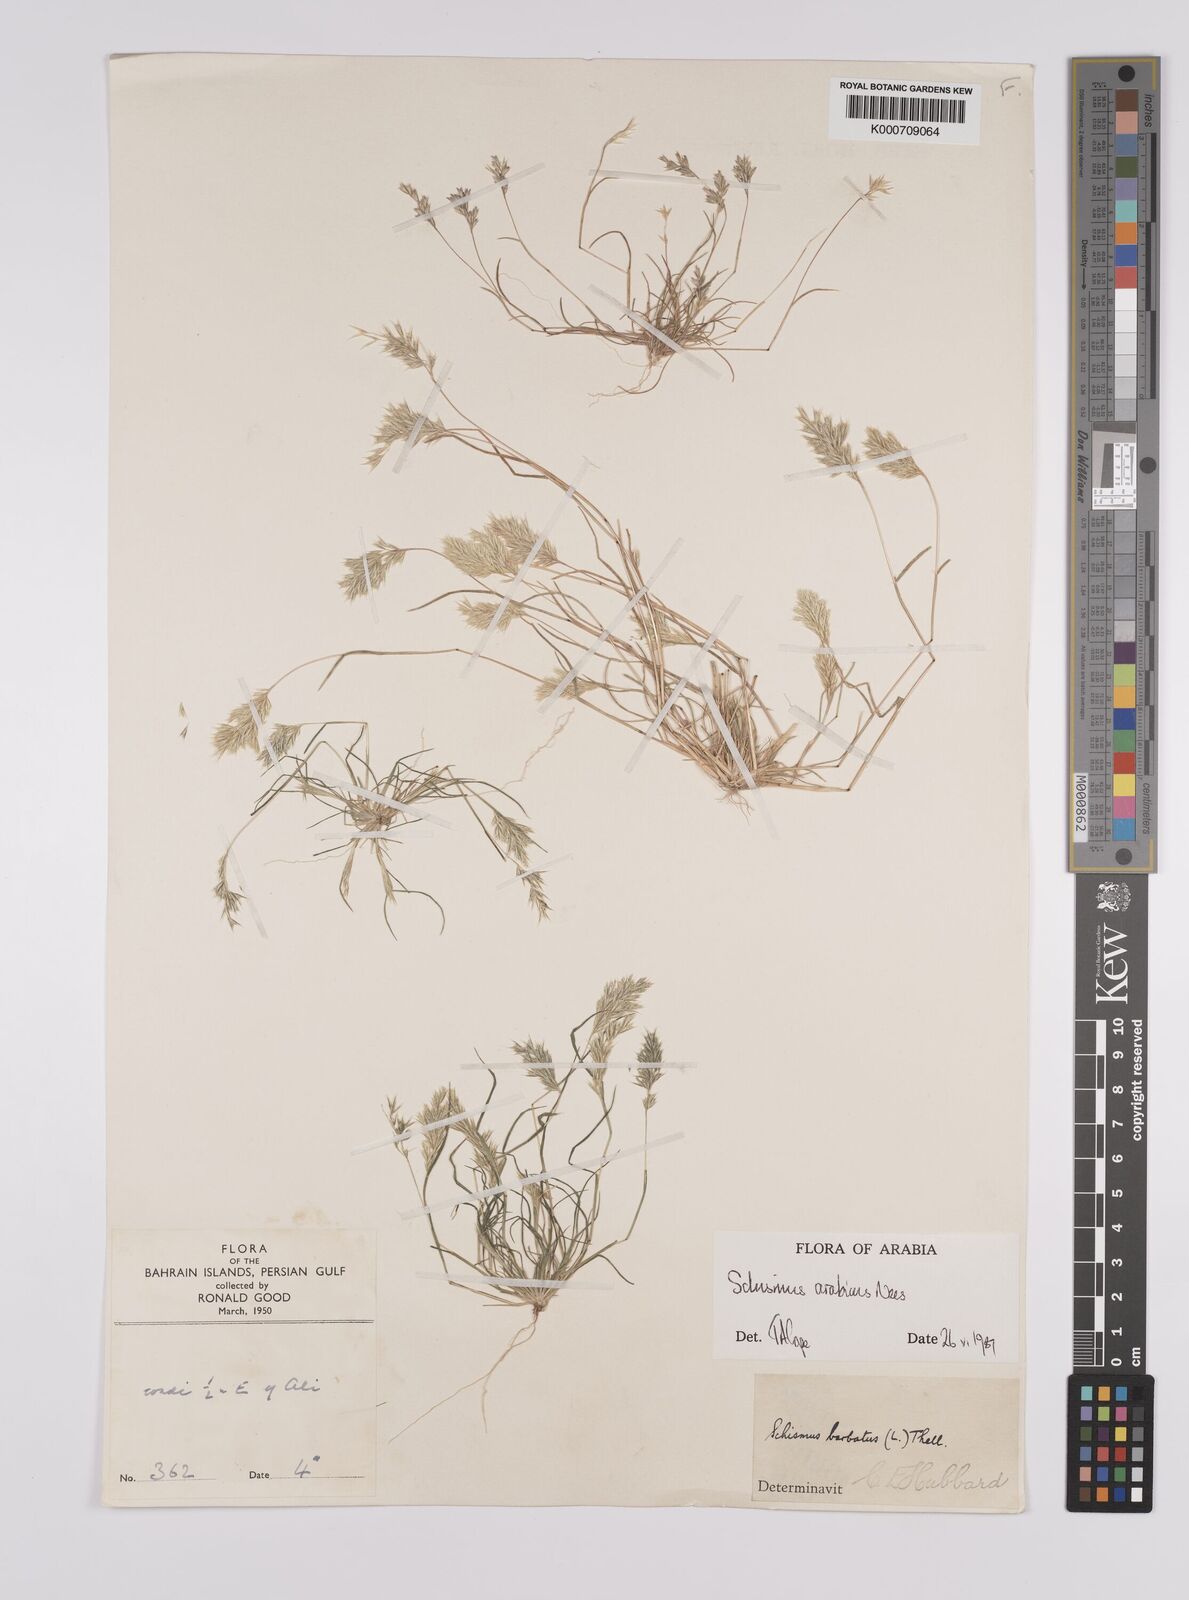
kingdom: Plantae
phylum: Tracheophyta
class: Liliopsida
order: Poales
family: Poaceae
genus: Schismus
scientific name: Schismus arabicus
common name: Arabian schismus
